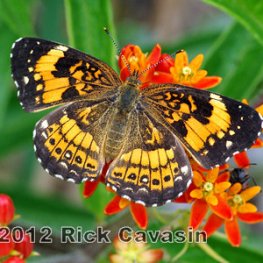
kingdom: Animalia
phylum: Arthropoda
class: Insecta
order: Lepidoptera
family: Nymphalidae
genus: Chlosyne
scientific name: Chlosyne nycteis
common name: Silvery Checkerspot
